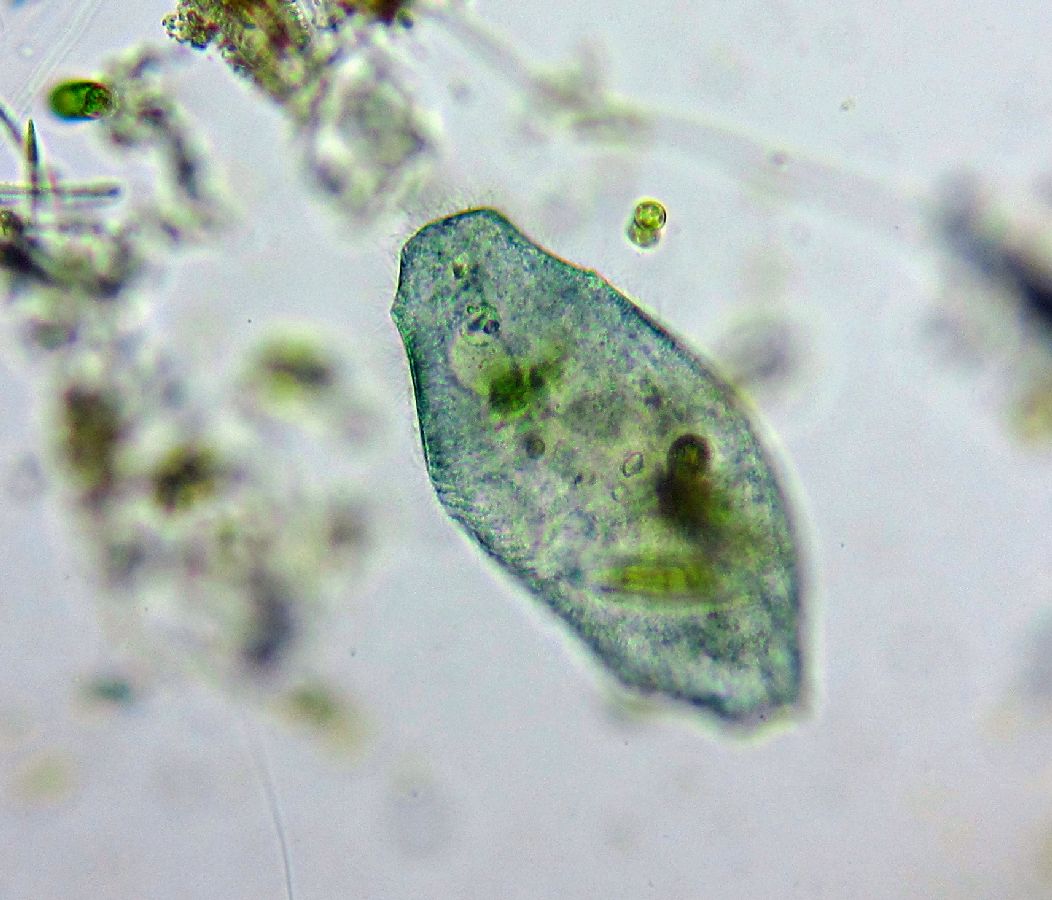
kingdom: Chromista
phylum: Ciliophora
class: Heterotrichea
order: Heterotrichida
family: Stentoridae
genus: Stentor
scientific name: Stentor coeruleus
